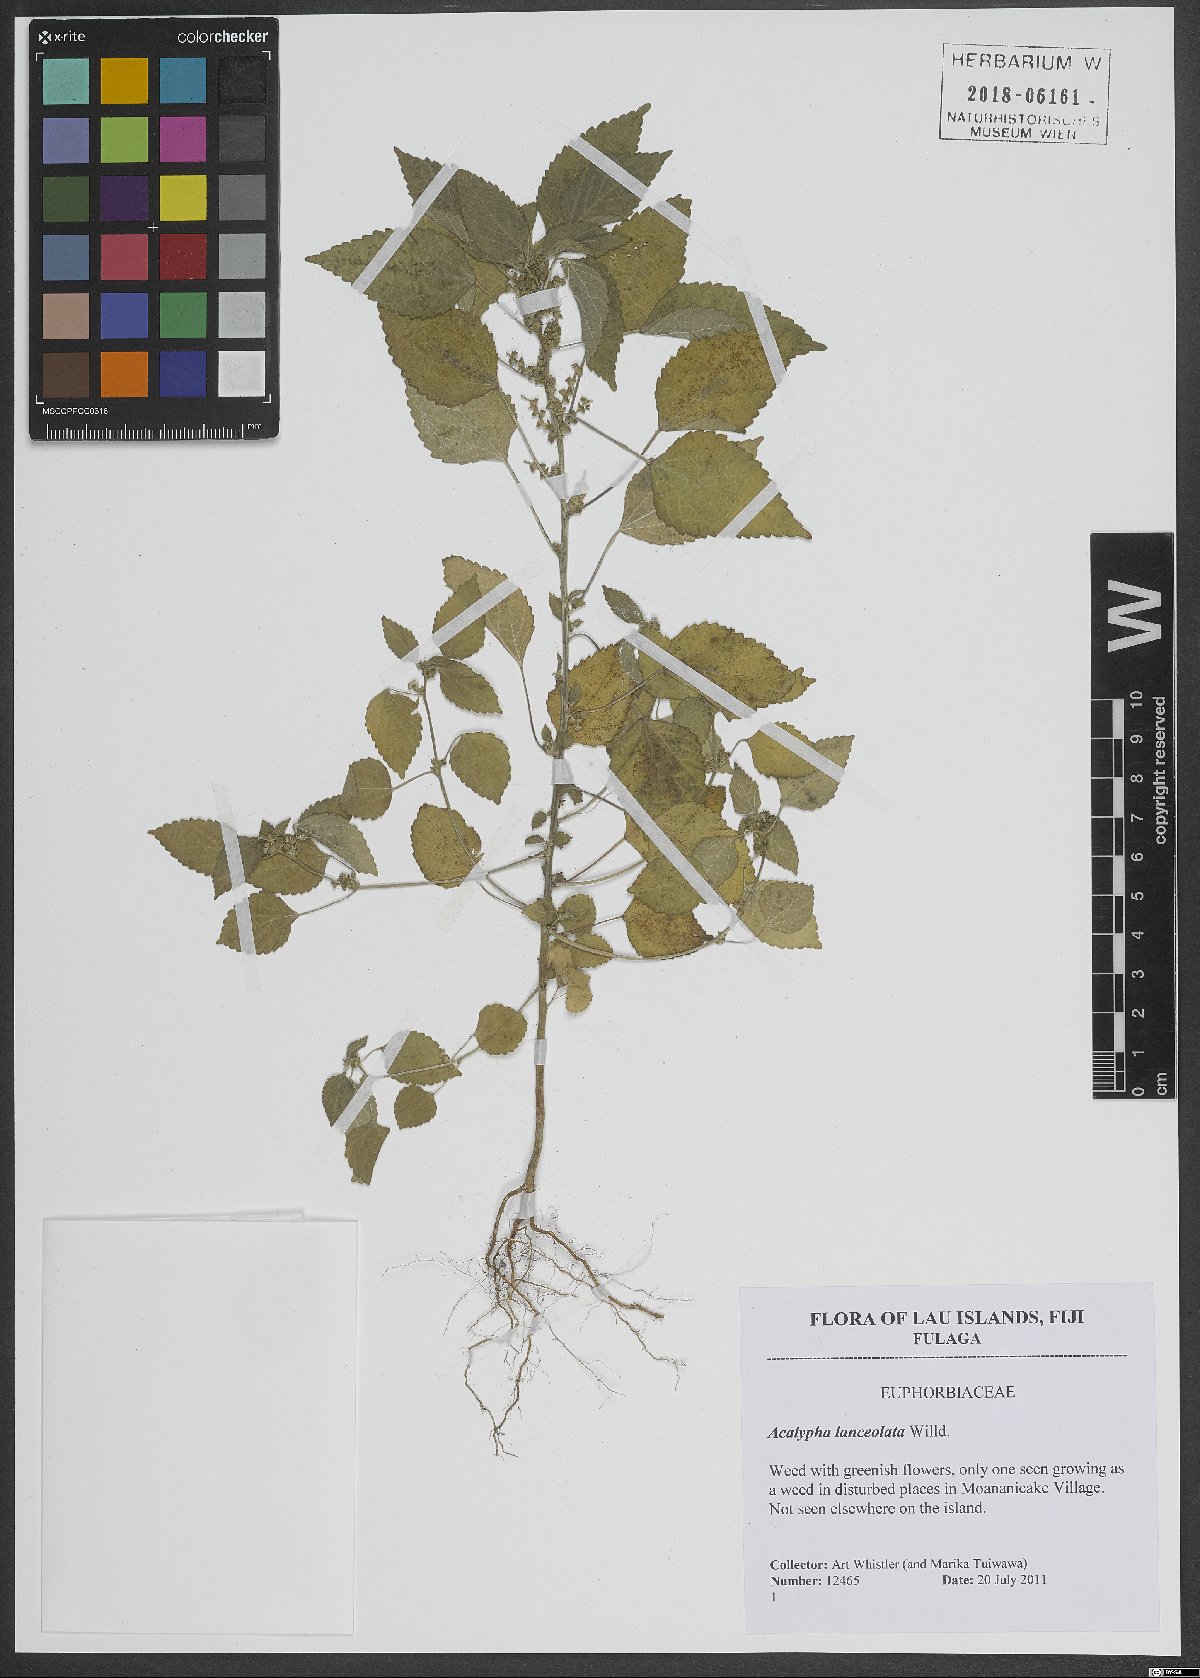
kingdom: Plantae
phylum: Tracheophyta
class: Magnoliopsida
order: Malpighiales
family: Euphorbiaceae
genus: Acalypha
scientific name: Acalypha lanceolata
